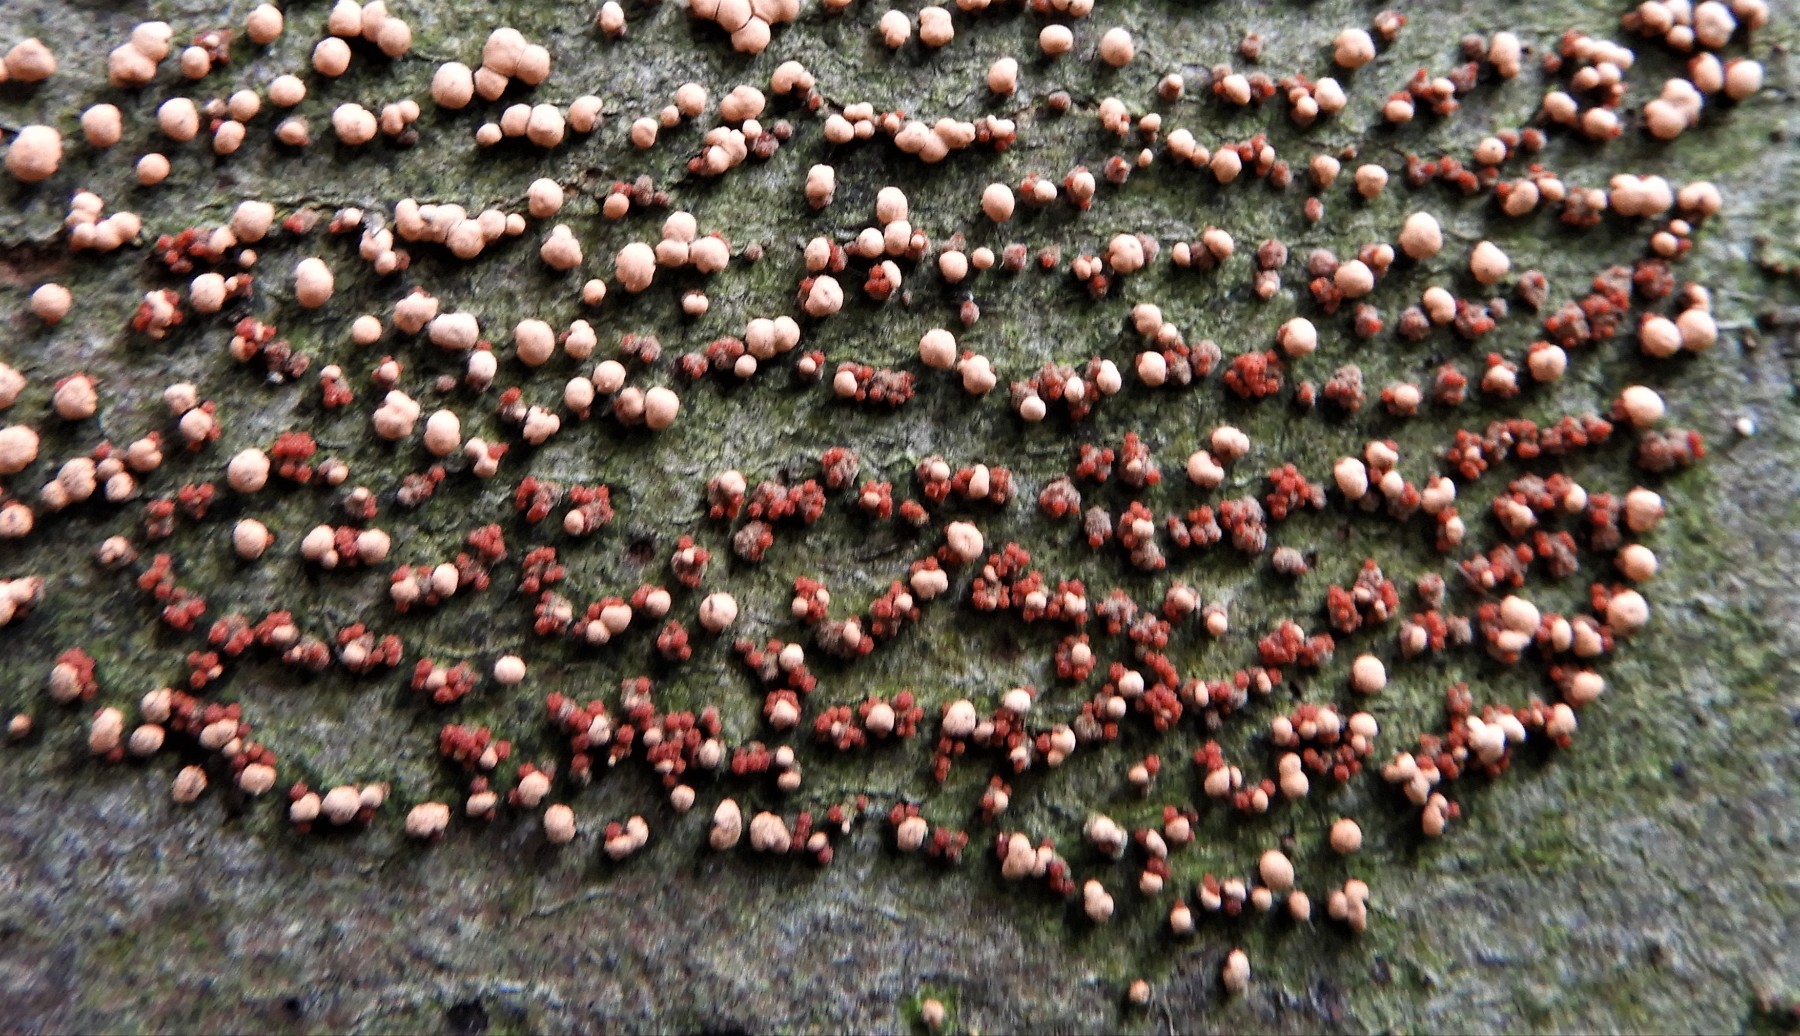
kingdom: Fungi
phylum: Ascomycota
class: Sordariomycetes
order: Hypocreales
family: Nectriaceae
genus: Nectria
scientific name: Nectria cinnabarina
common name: almindelig cinnobersvamp
